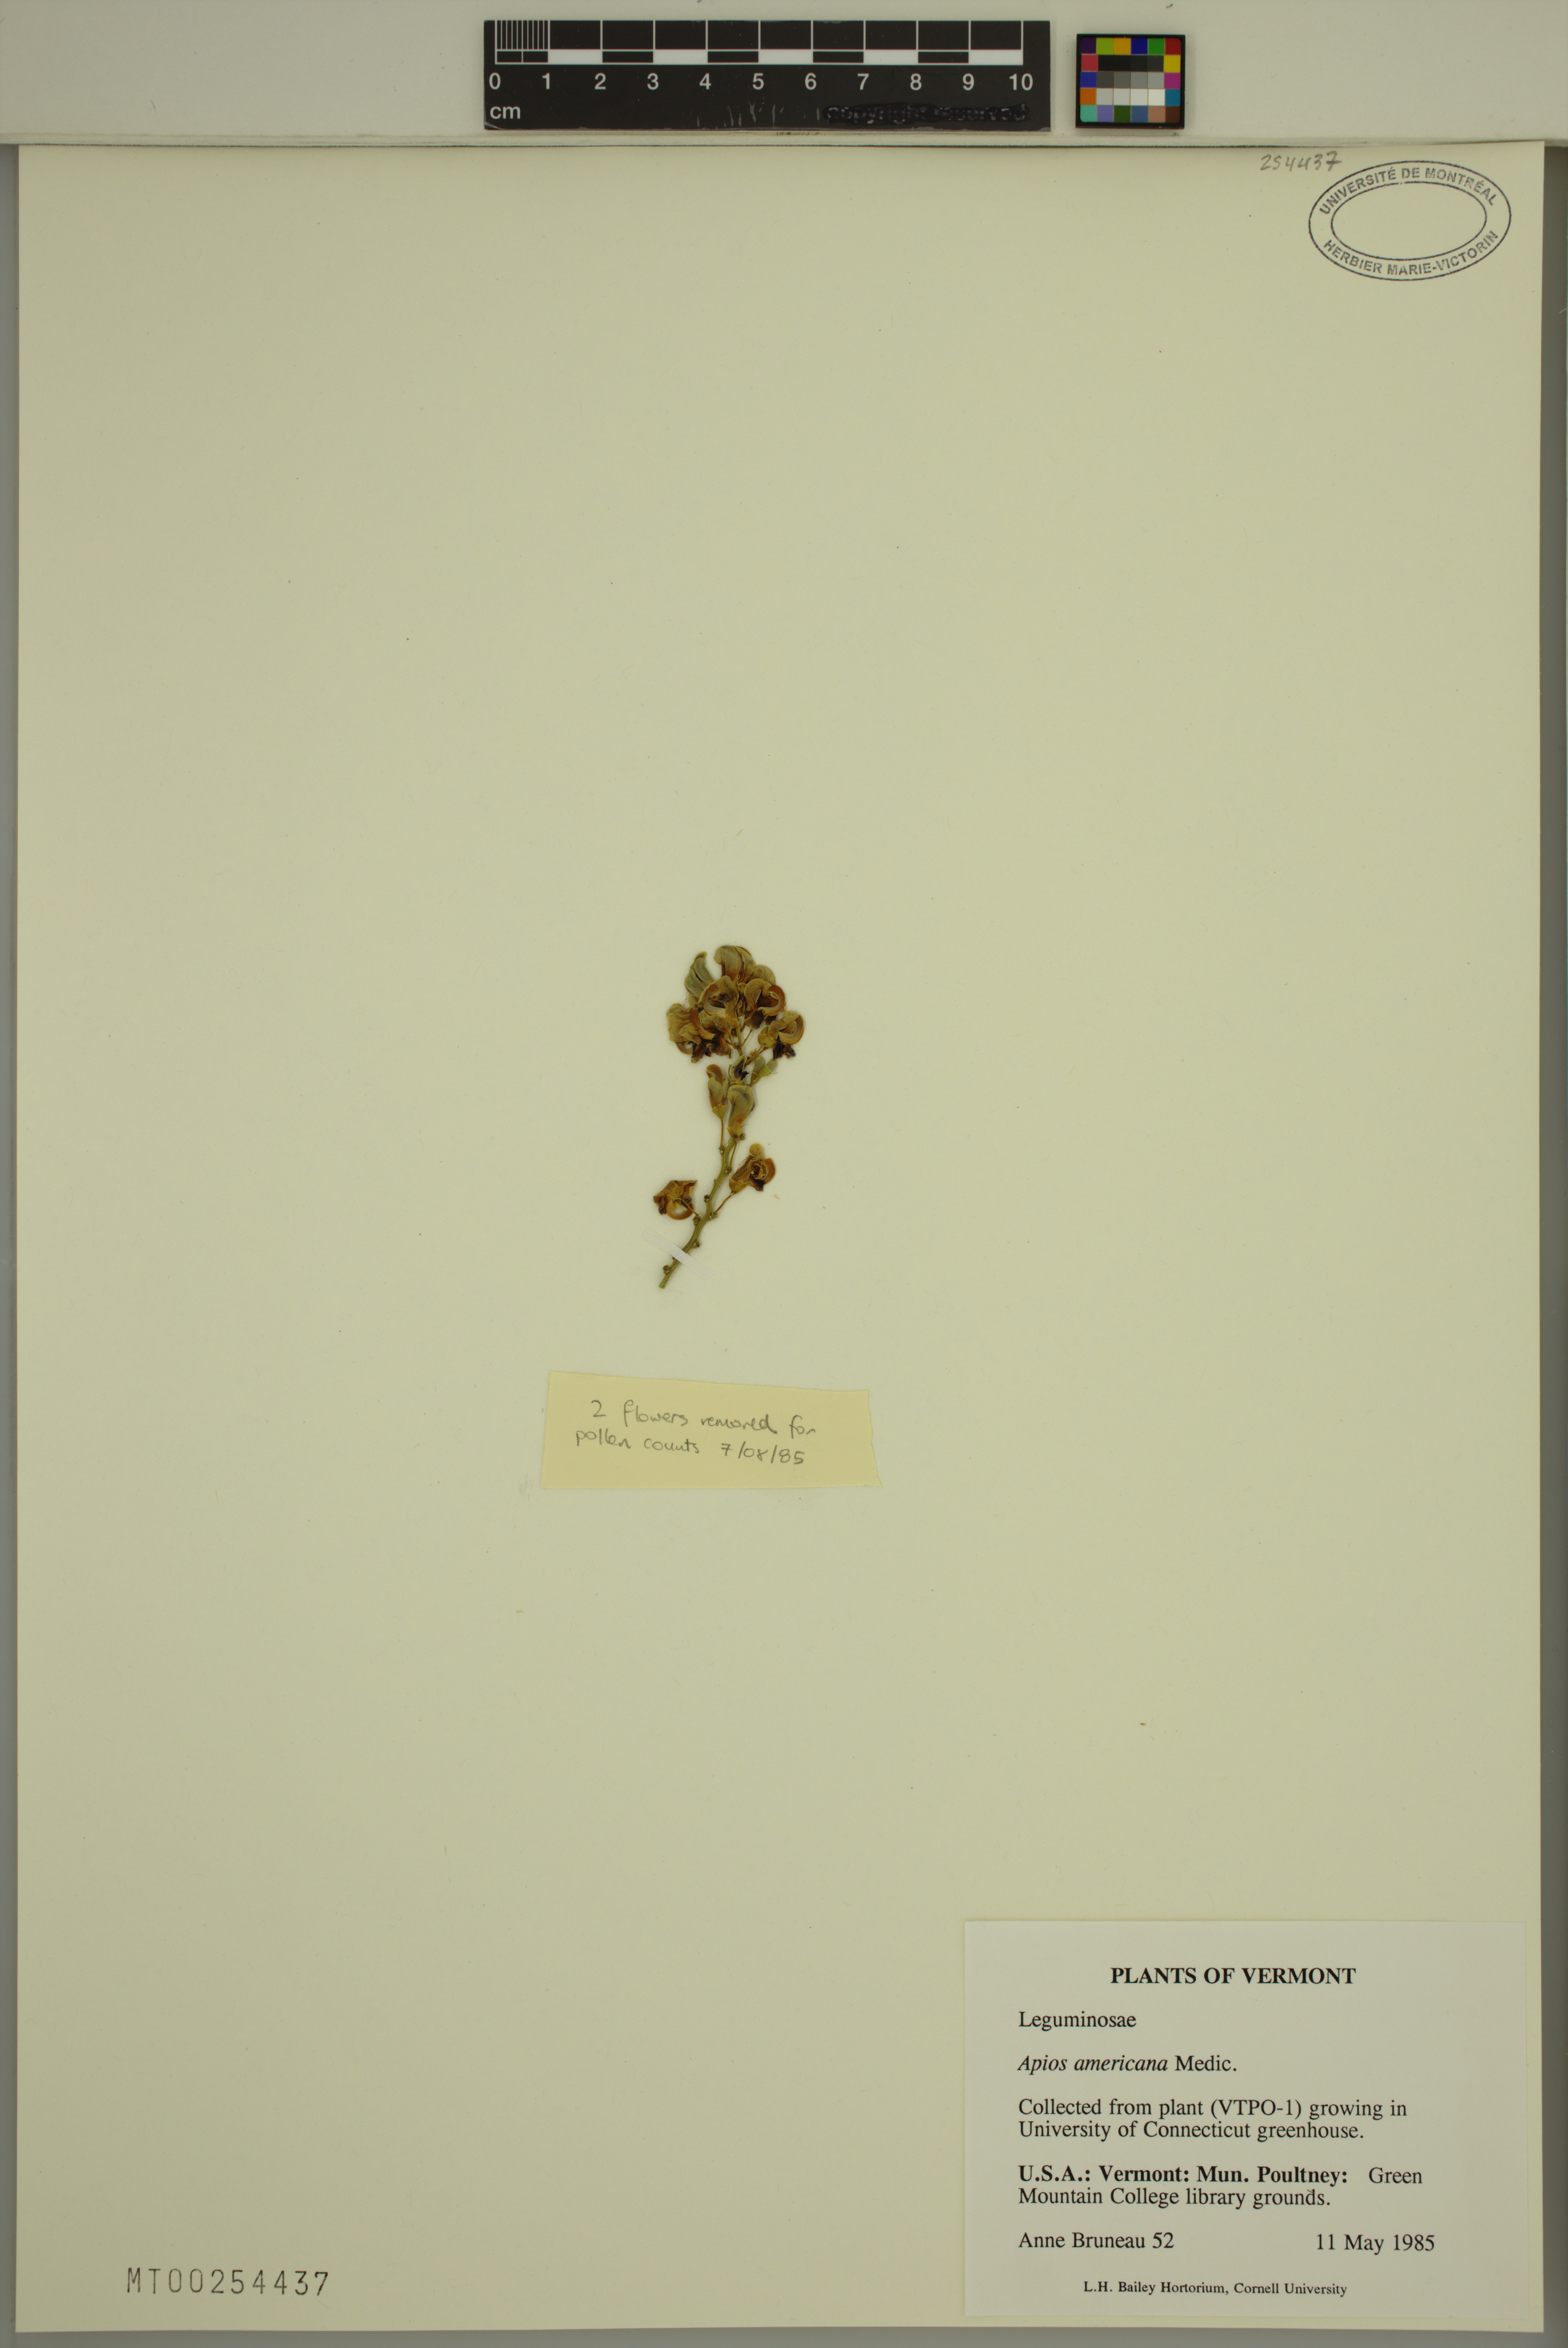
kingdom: Plantae
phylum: Tracheophyta
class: Magnoliopsida
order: Fabales
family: Fabaceae
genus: Apios
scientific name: Apios americana
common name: American potato-bean
